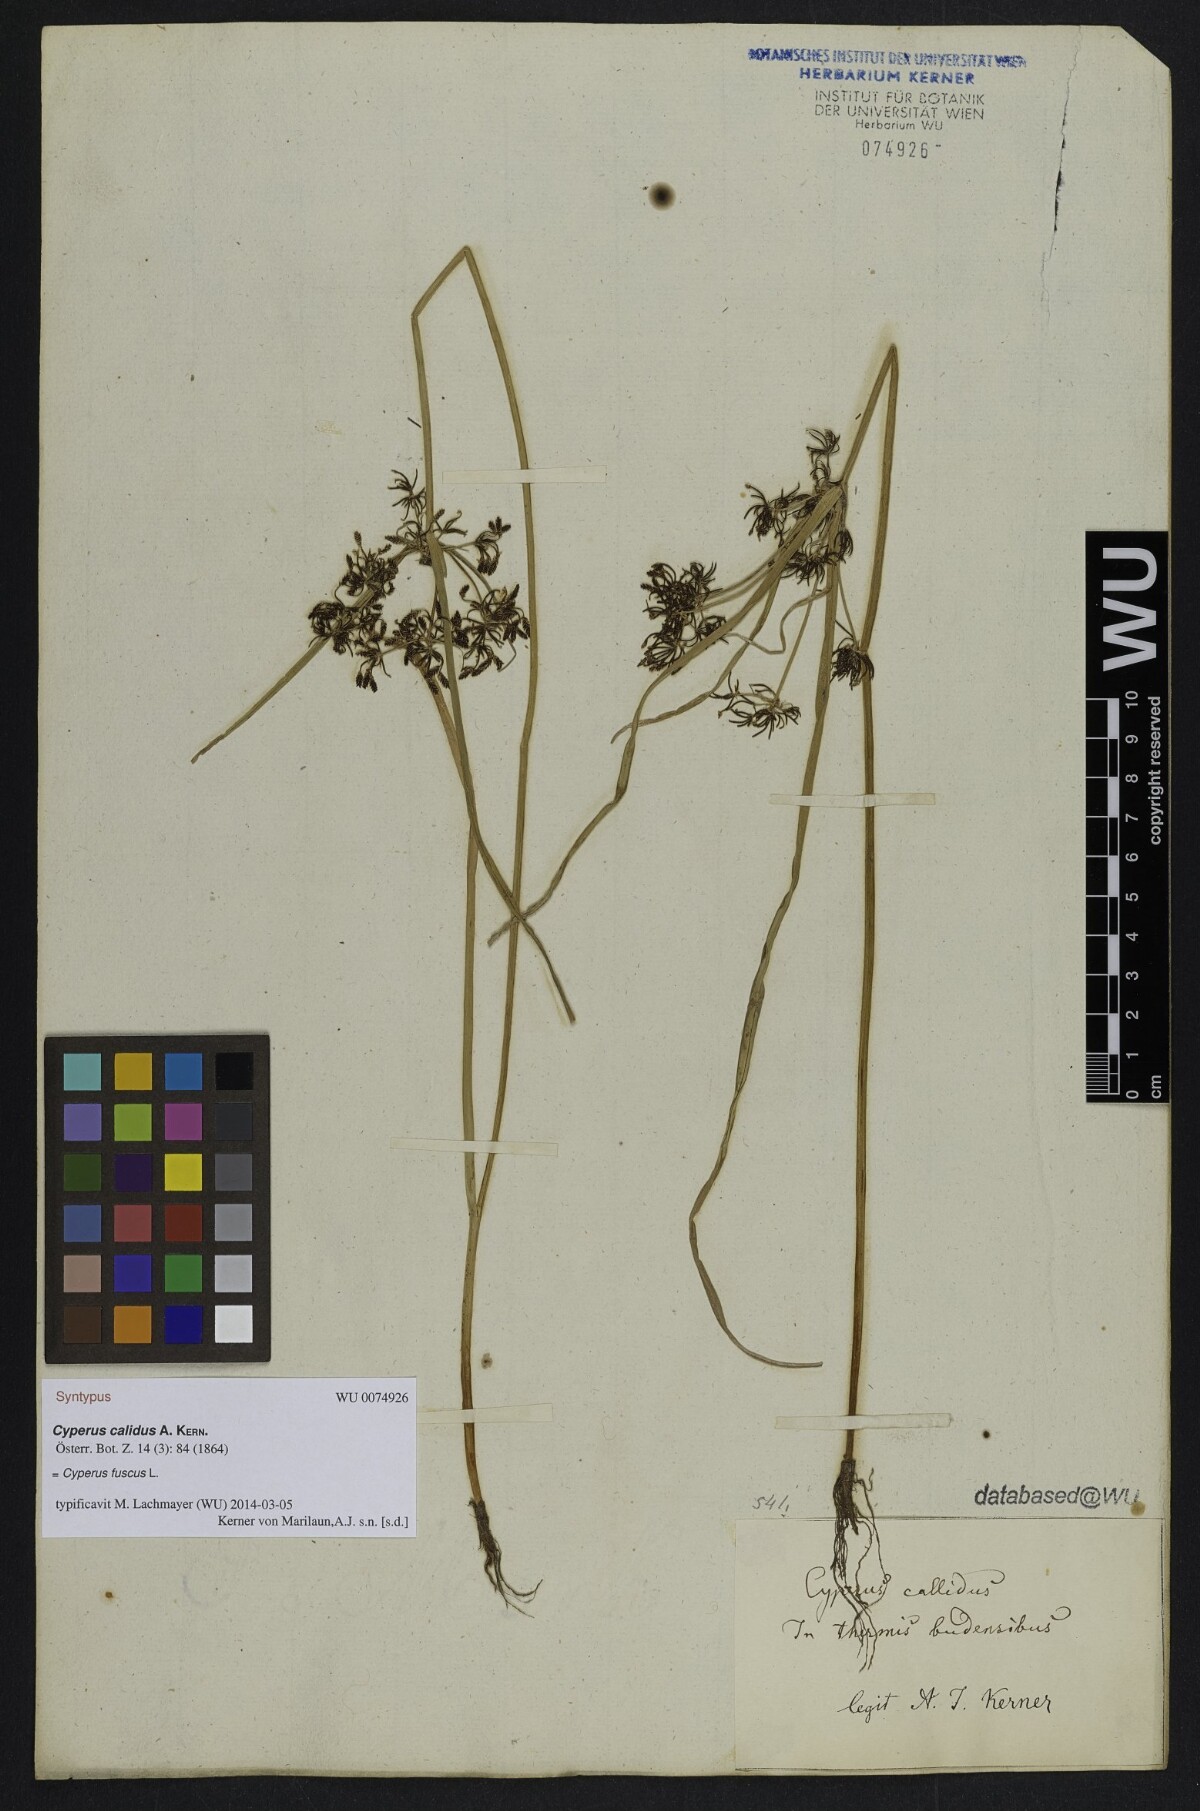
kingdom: Plantae
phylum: Tracheophyta
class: Liliopsida
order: Poales
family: Cyperaceae
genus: Cyperus
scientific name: Cyperus fuscus
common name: Brown galingale
